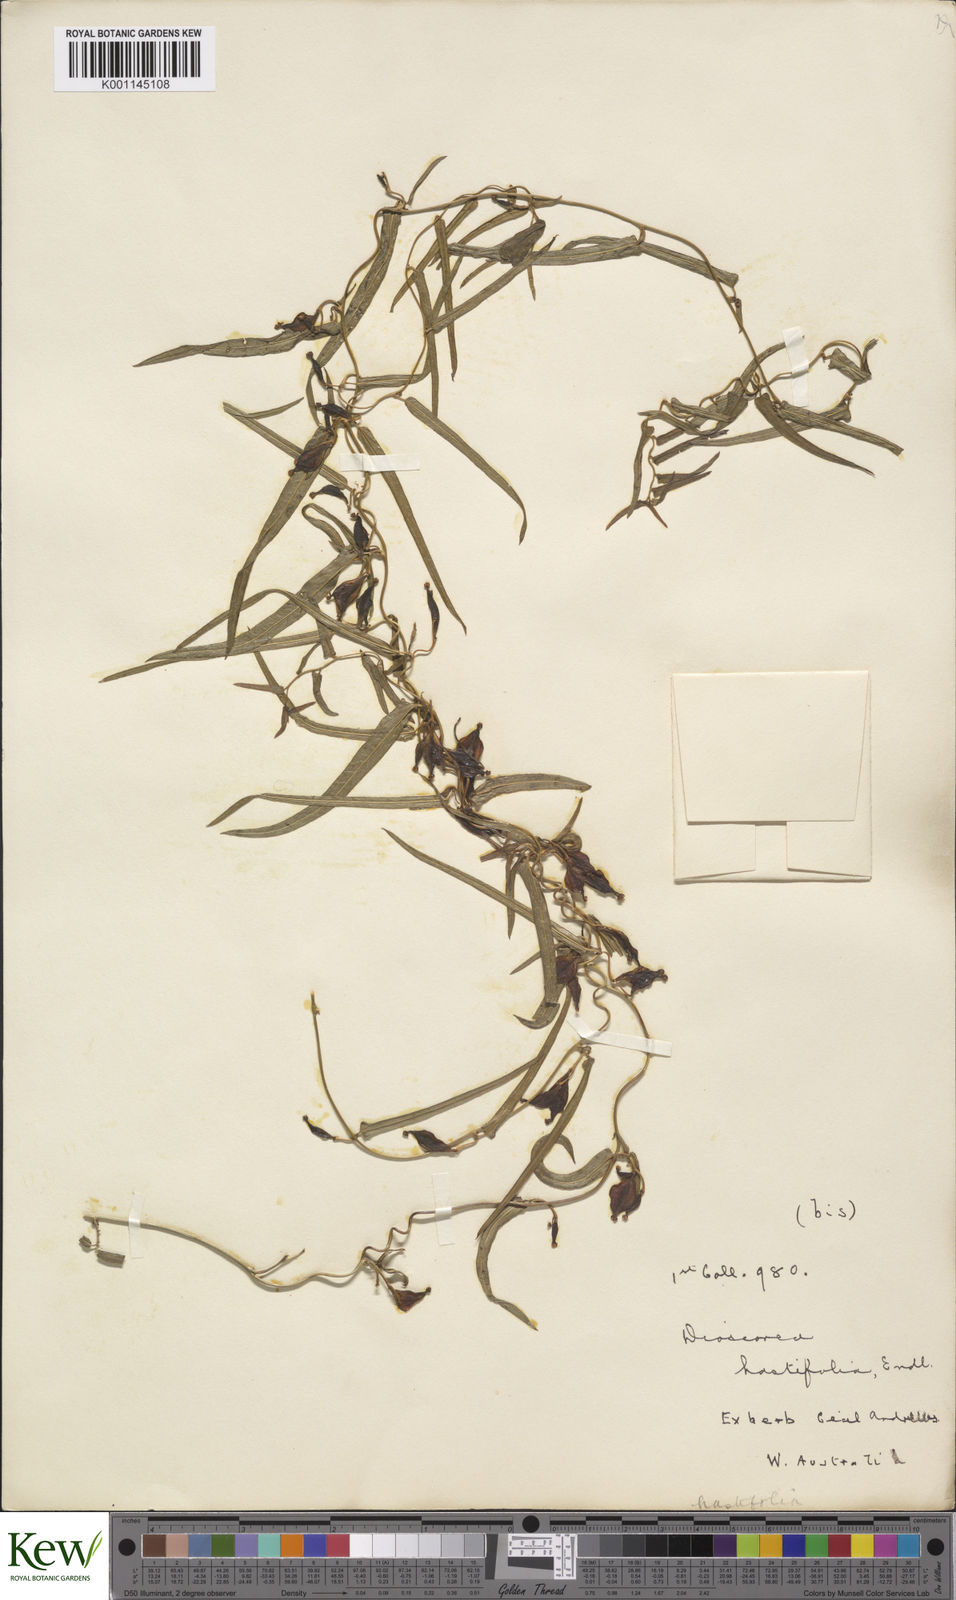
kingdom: Plantae
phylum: Tracheophyta
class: Liliopsida
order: Dioscoreales
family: Dioscoreaceae
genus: Dioscorea
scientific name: Dioscorea hastifolia
